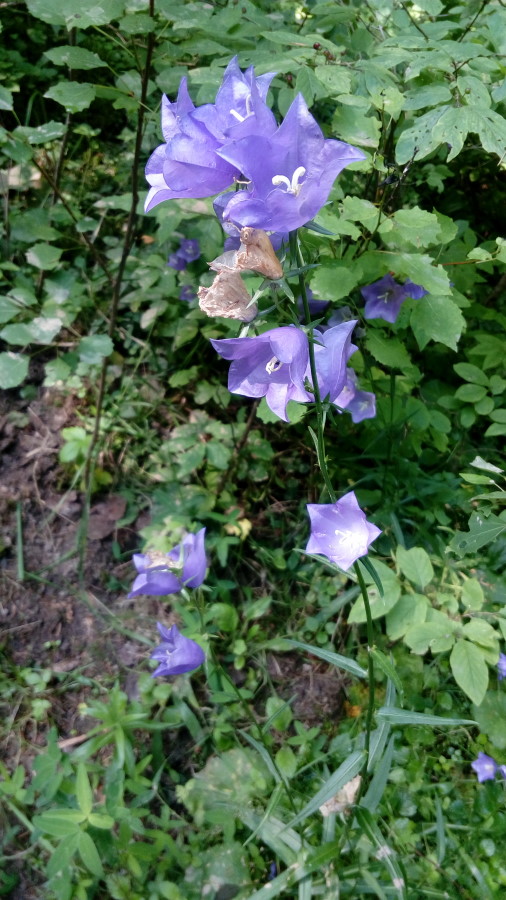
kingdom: Plantae
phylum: Tracheophyta
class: Magnoliopsida
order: Asterales
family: Campanulaceae
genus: Campanula
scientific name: Campanula persicifolia
